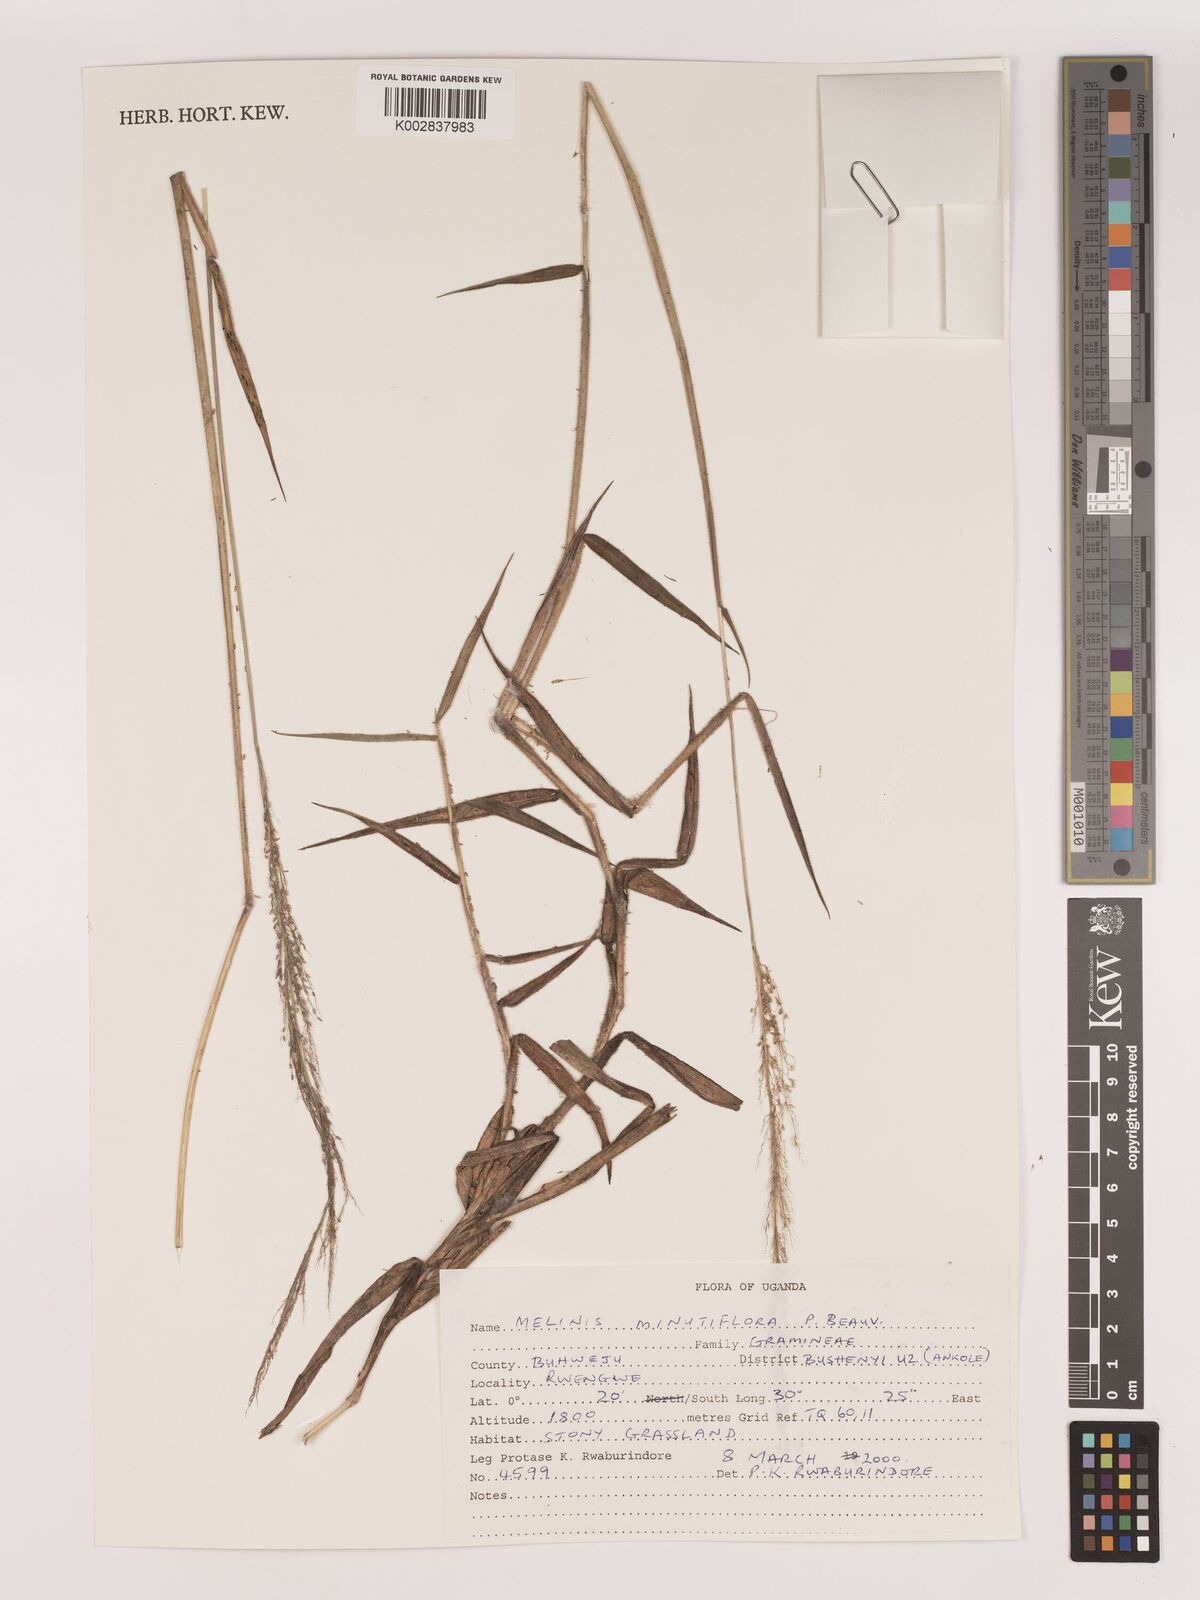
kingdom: Plantae
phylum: Tracheophyta
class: Liliopsida
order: Poales
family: Poaceae
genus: Melinis
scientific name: Melinis minutiflora
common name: Molassesgrass
